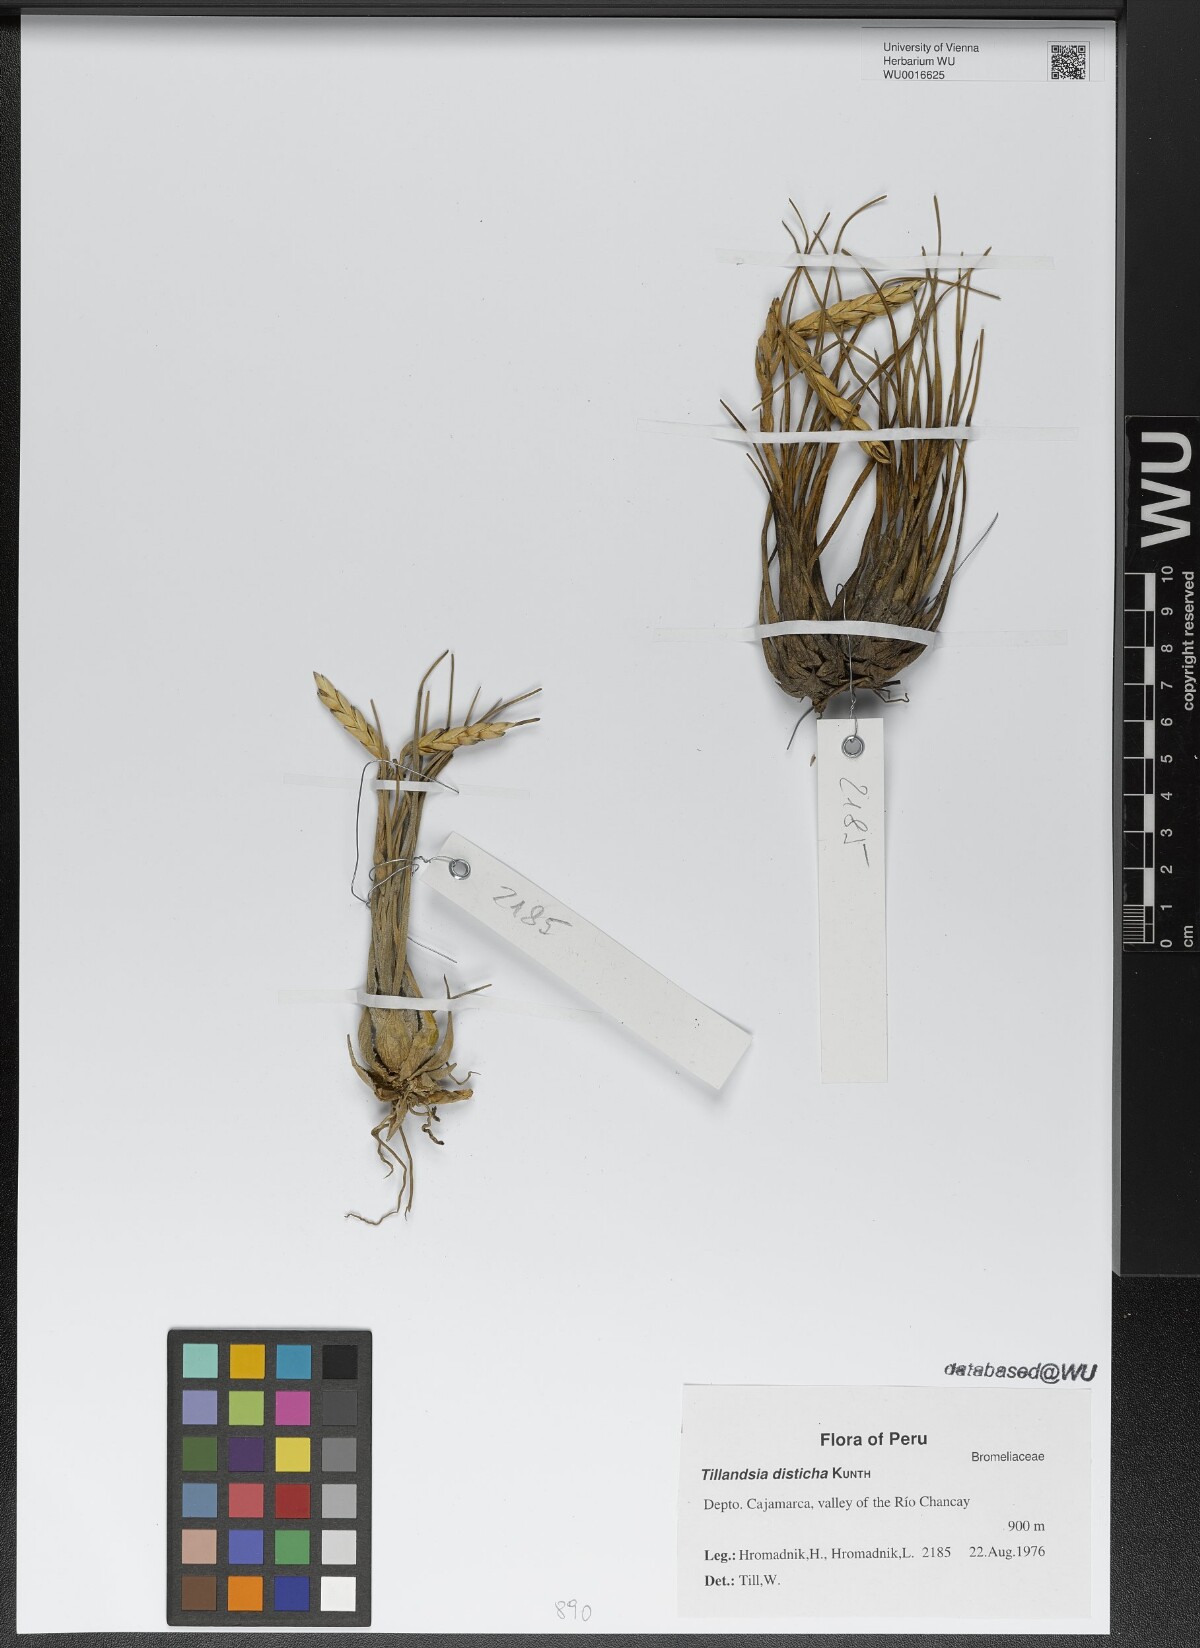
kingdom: Plantae
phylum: Tracheophyta
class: Liliopsida
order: Poales
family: Bromeliaceae
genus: Tillandsia
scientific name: Tillandsia disticha
